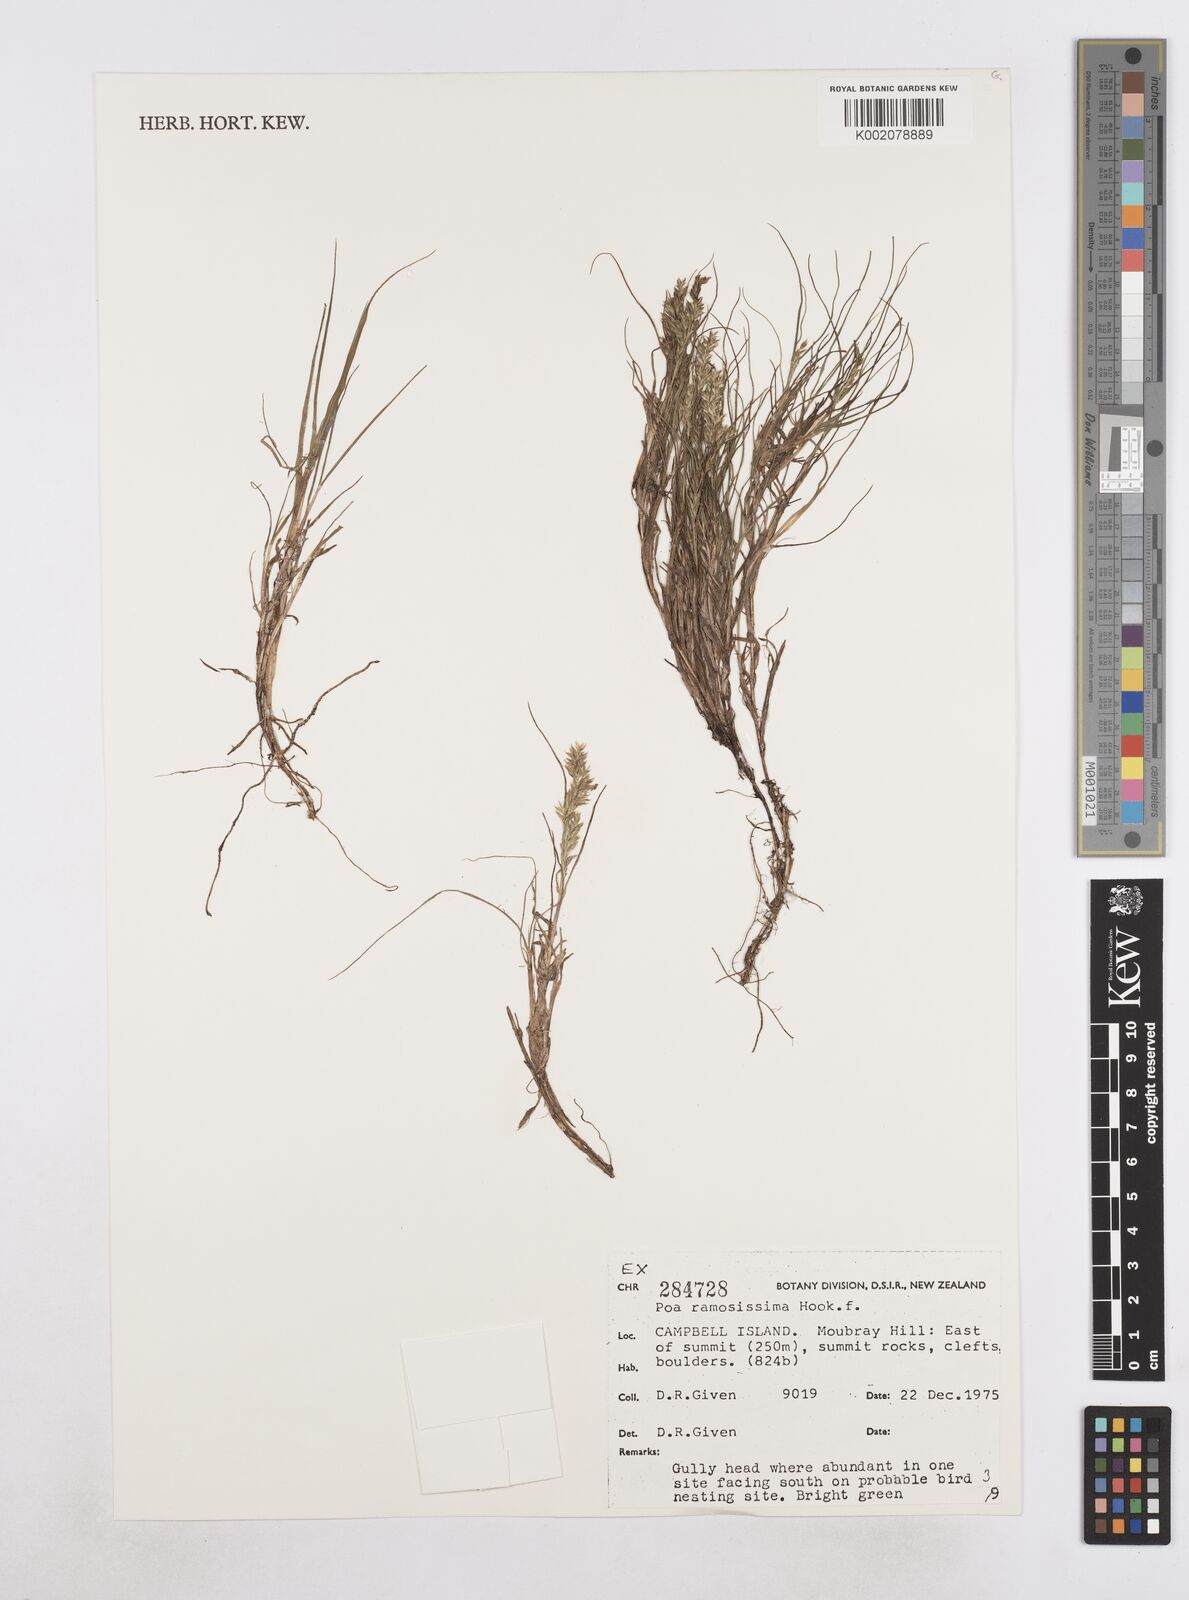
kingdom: Plantae
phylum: Tracheophyta
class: Liliopsida
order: Poales
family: Poaceae
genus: Poa
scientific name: Poa ramosissima
